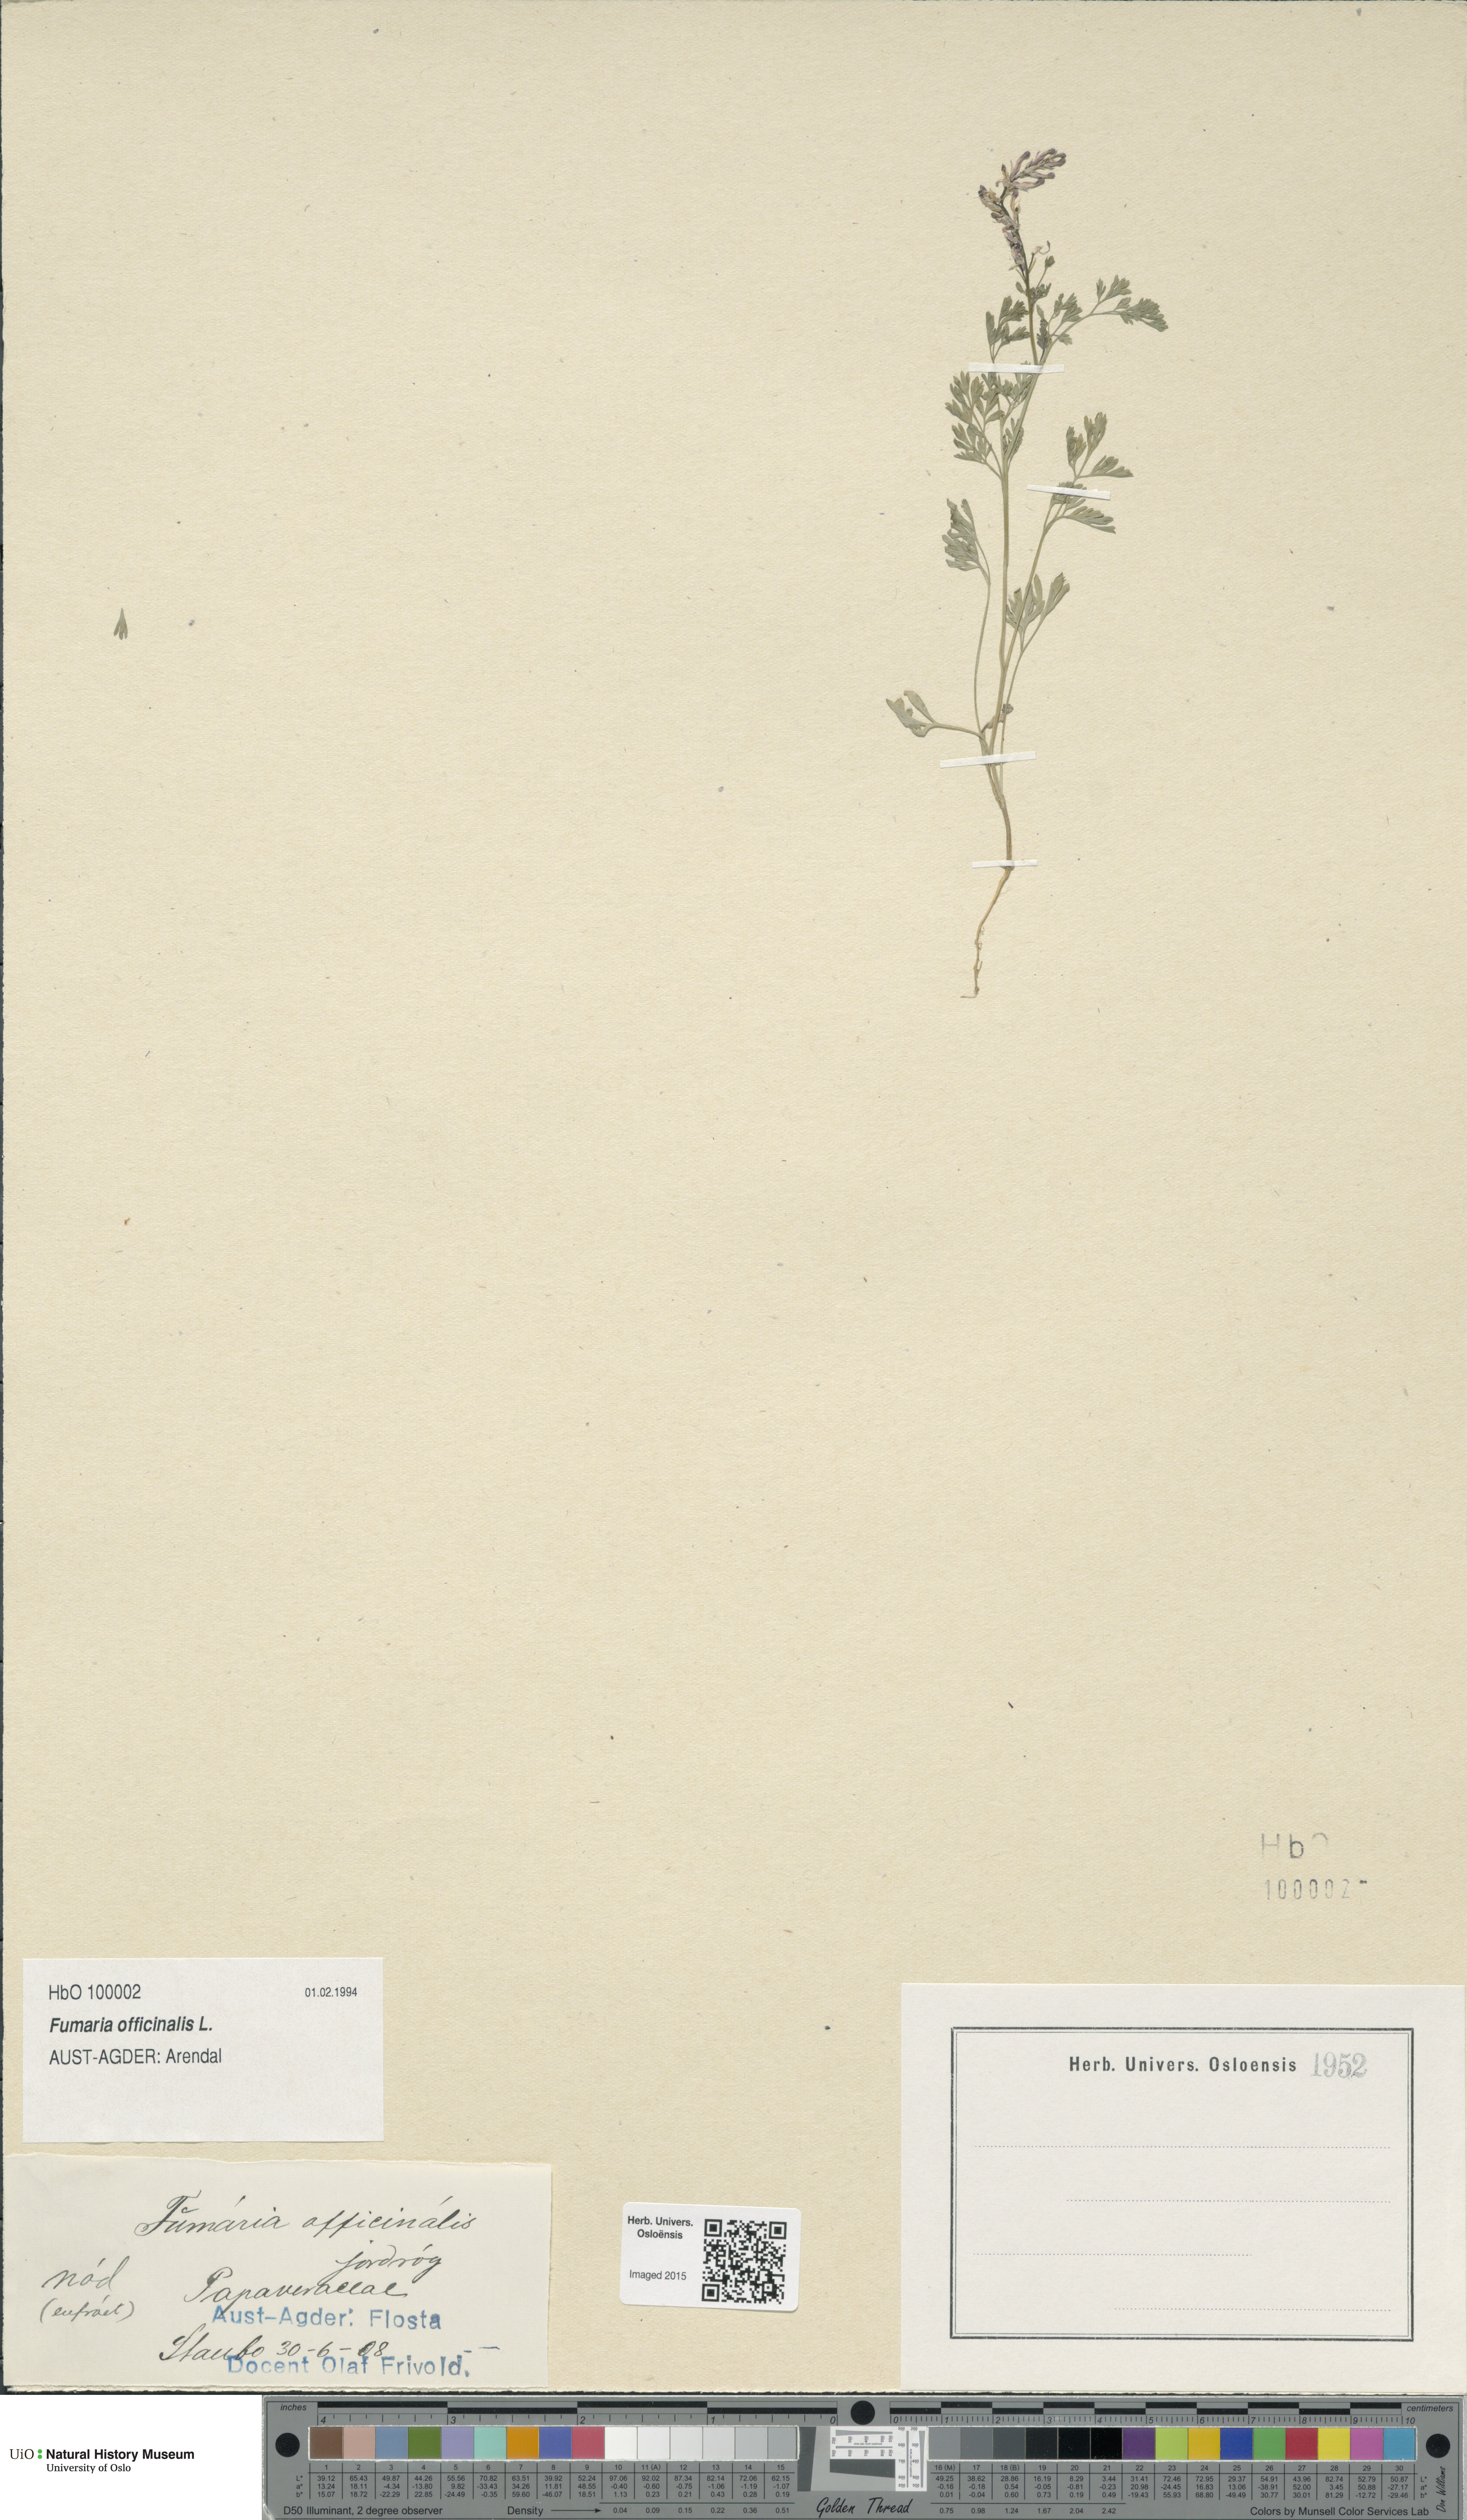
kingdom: Plantae
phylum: Tracheophyta
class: Magnoliopsida
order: Ranunculales
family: Papaveraceae
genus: Fumaria
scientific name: Fumaria officinalis
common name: Common fumitory
